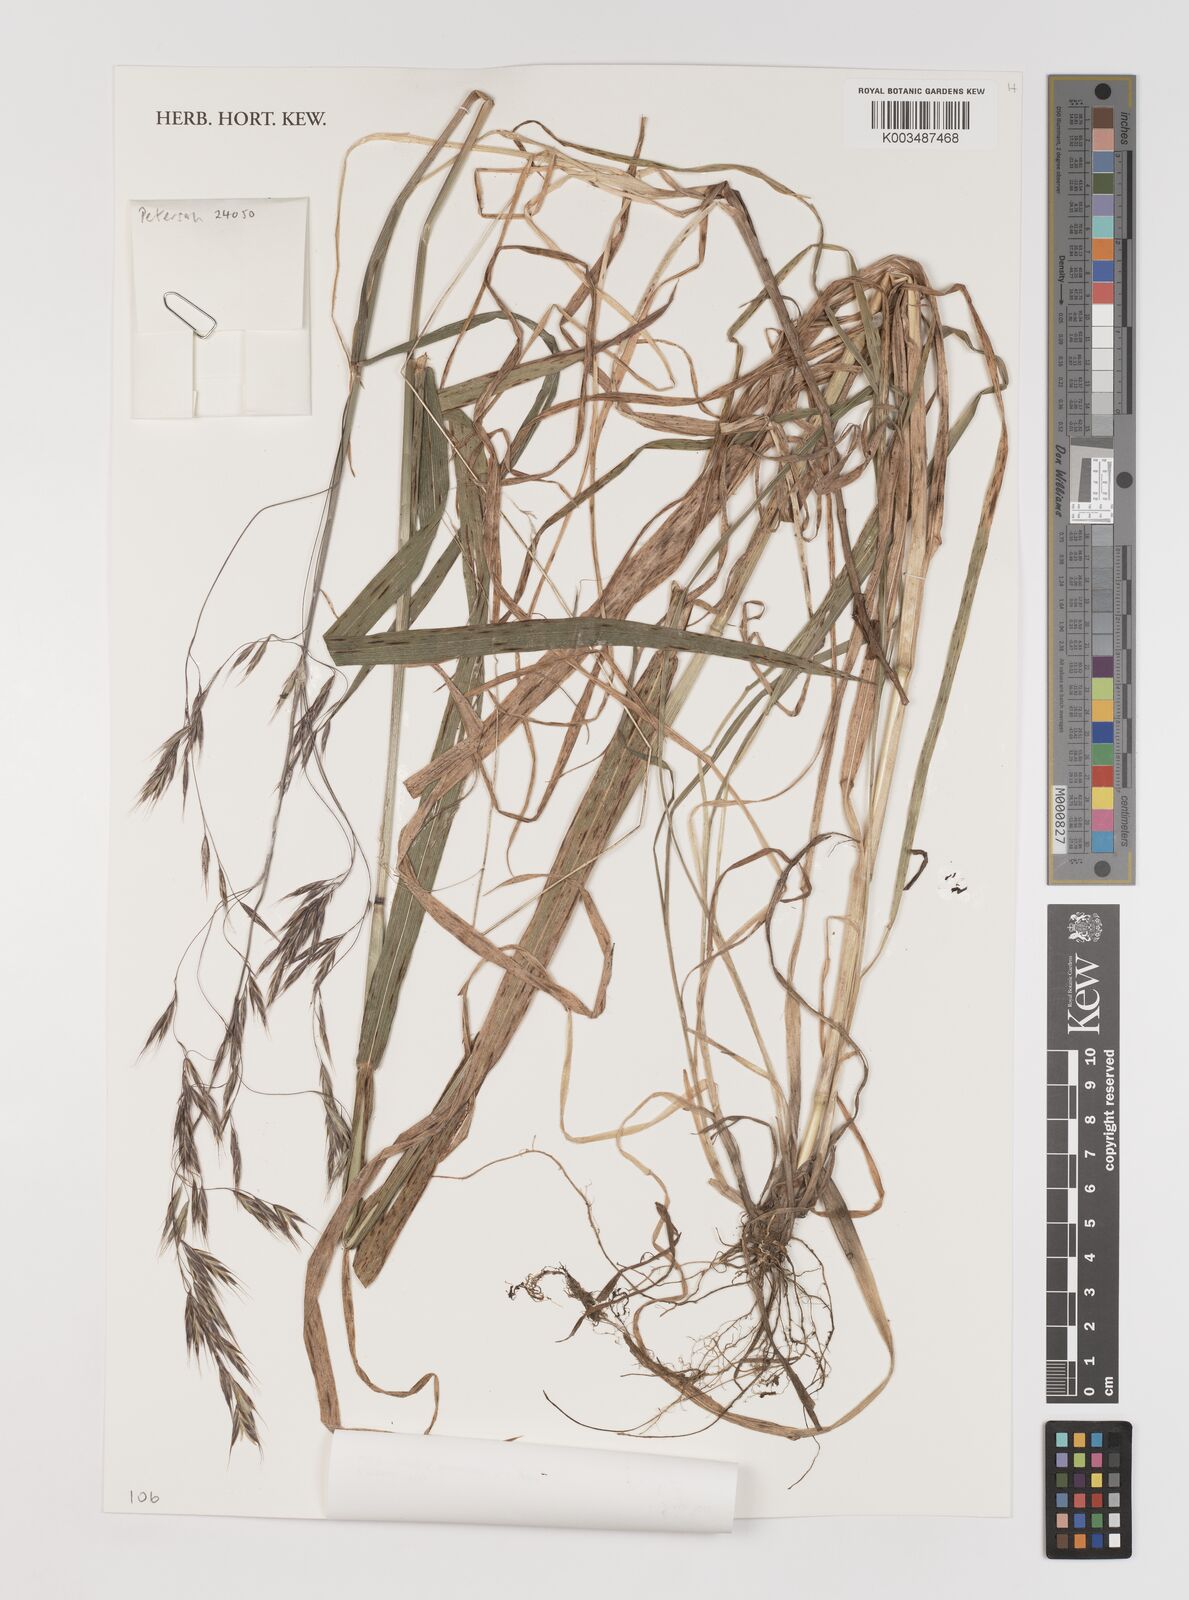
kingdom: Plantae
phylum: Tracheophyta
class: Liliopsida
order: Poales
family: Poaceae
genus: Bromus
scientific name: Bromus leptoclados
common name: Mountain bromegrass
